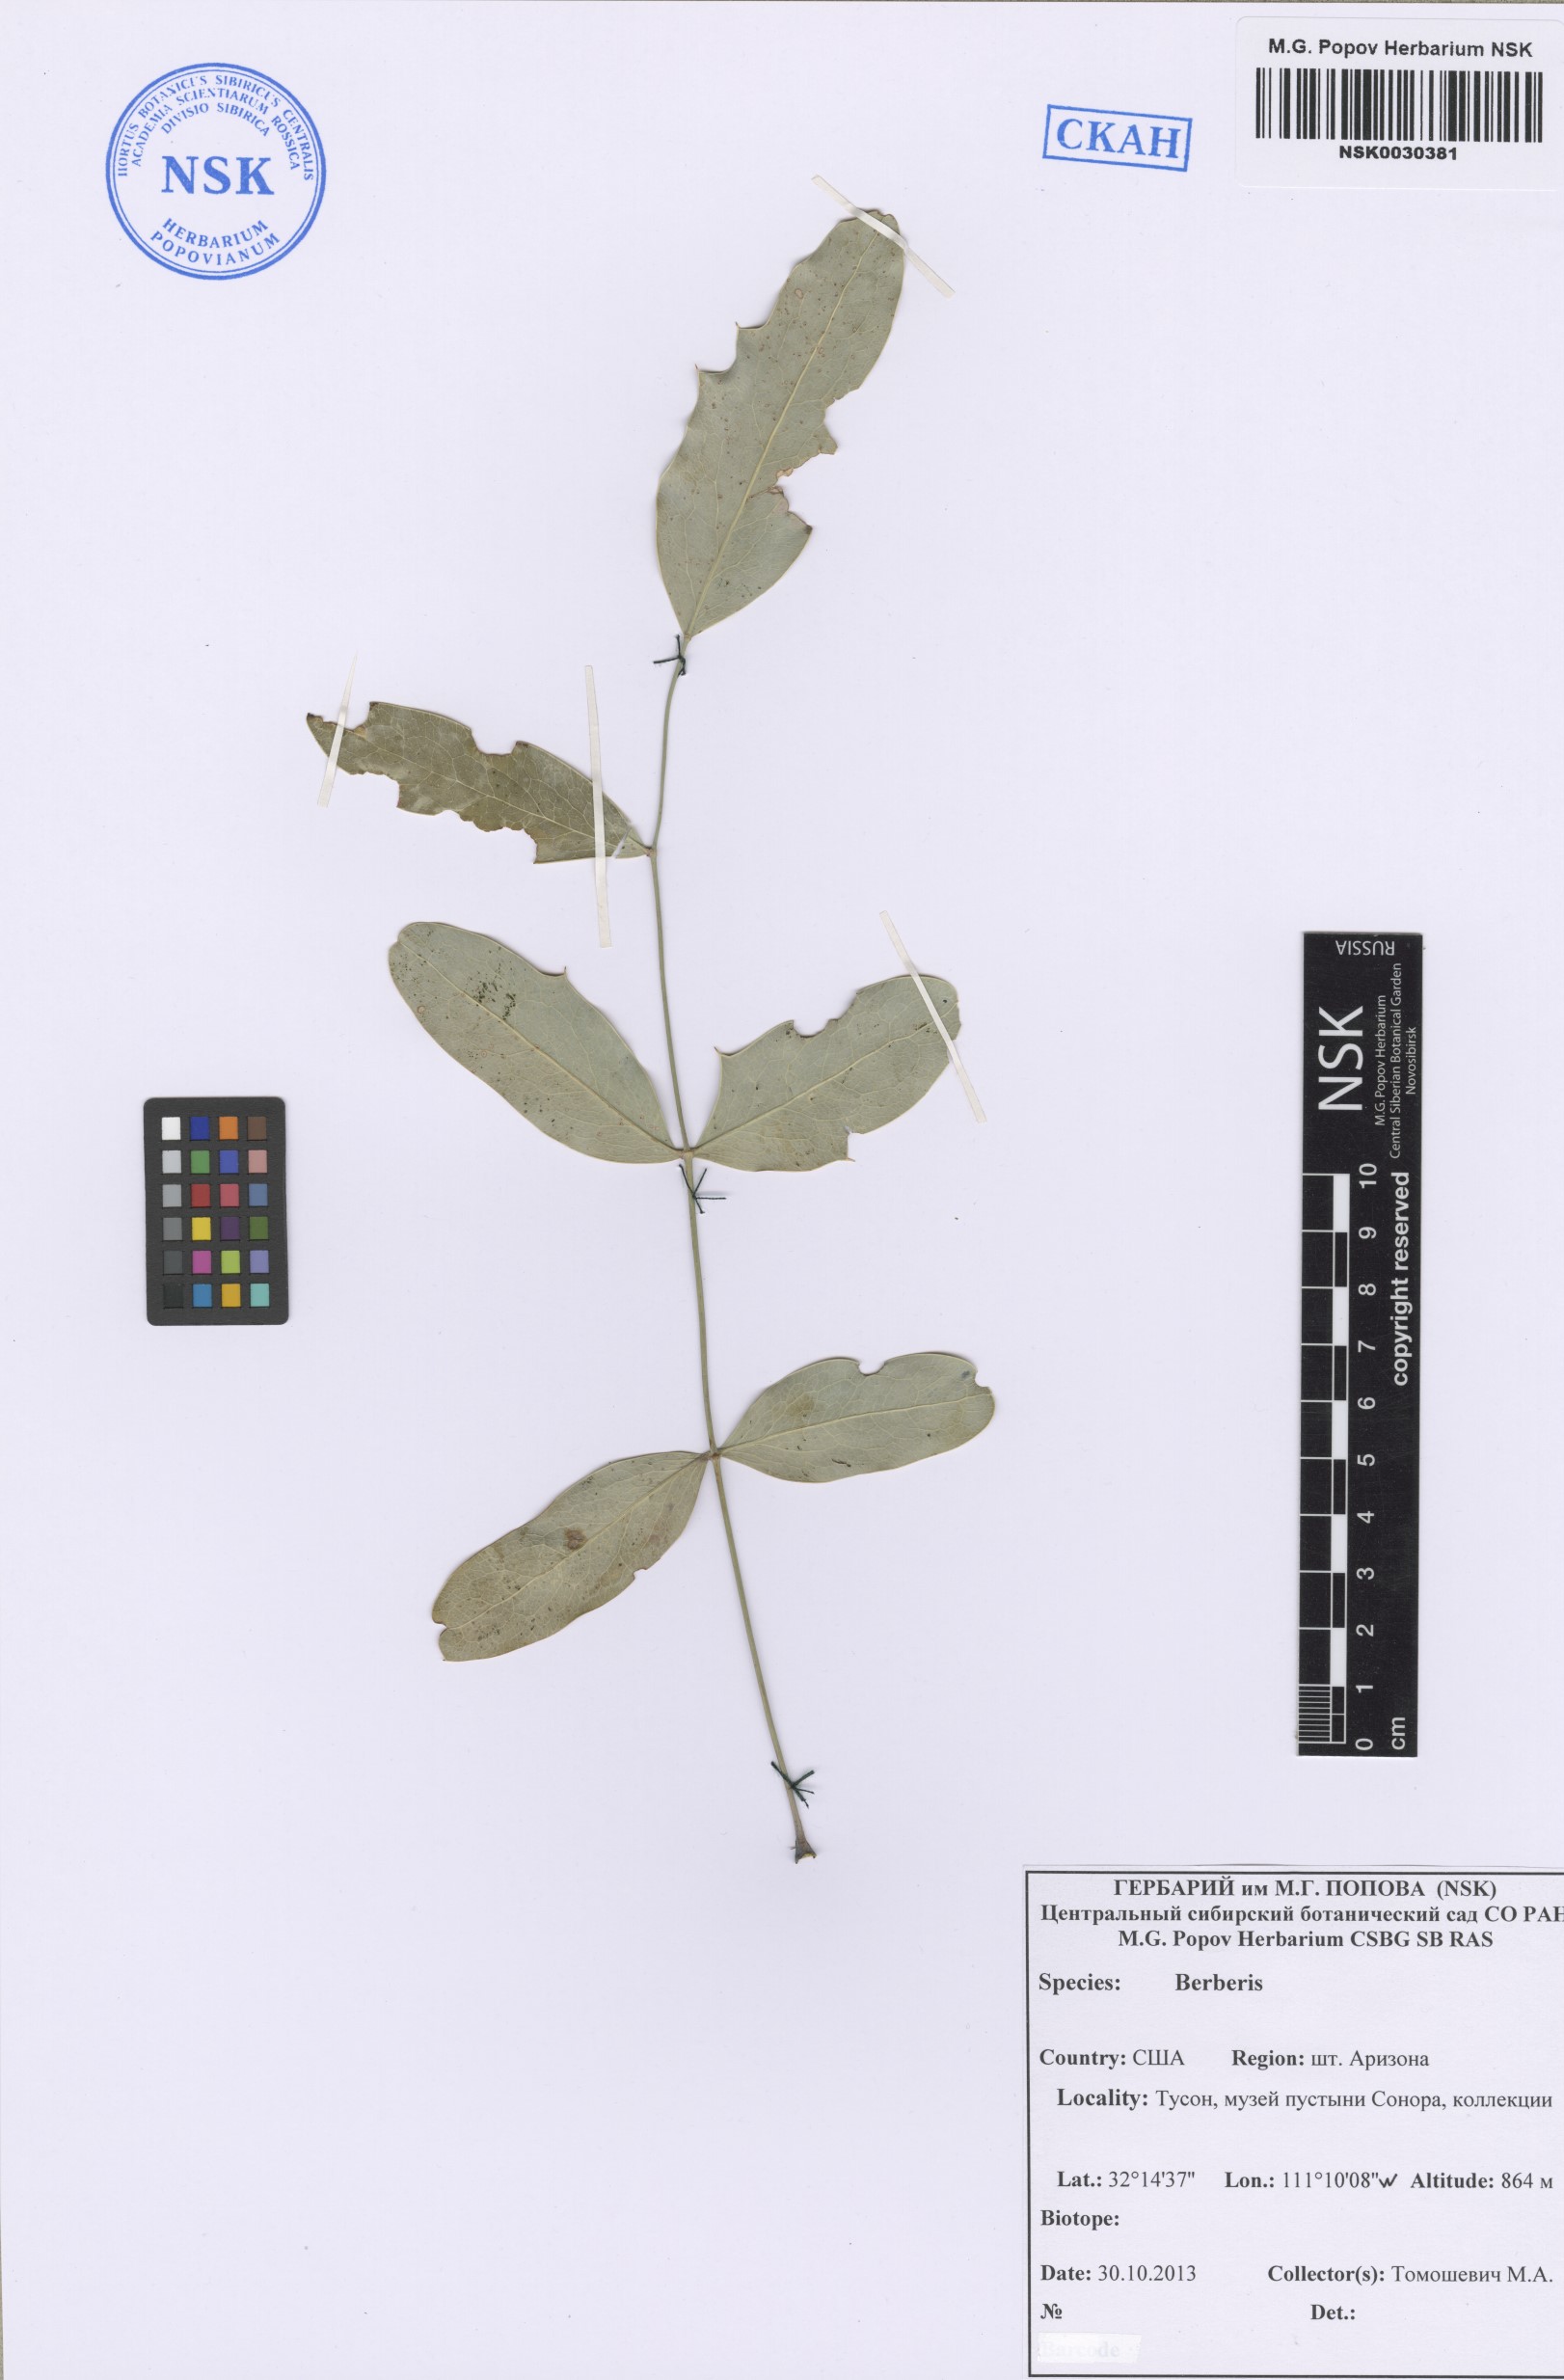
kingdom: Plantae
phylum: Tracheophyta
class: Magnoliopsida
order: Ranunculales
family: Berberidaceae
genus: Berberis
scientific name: Berberis
